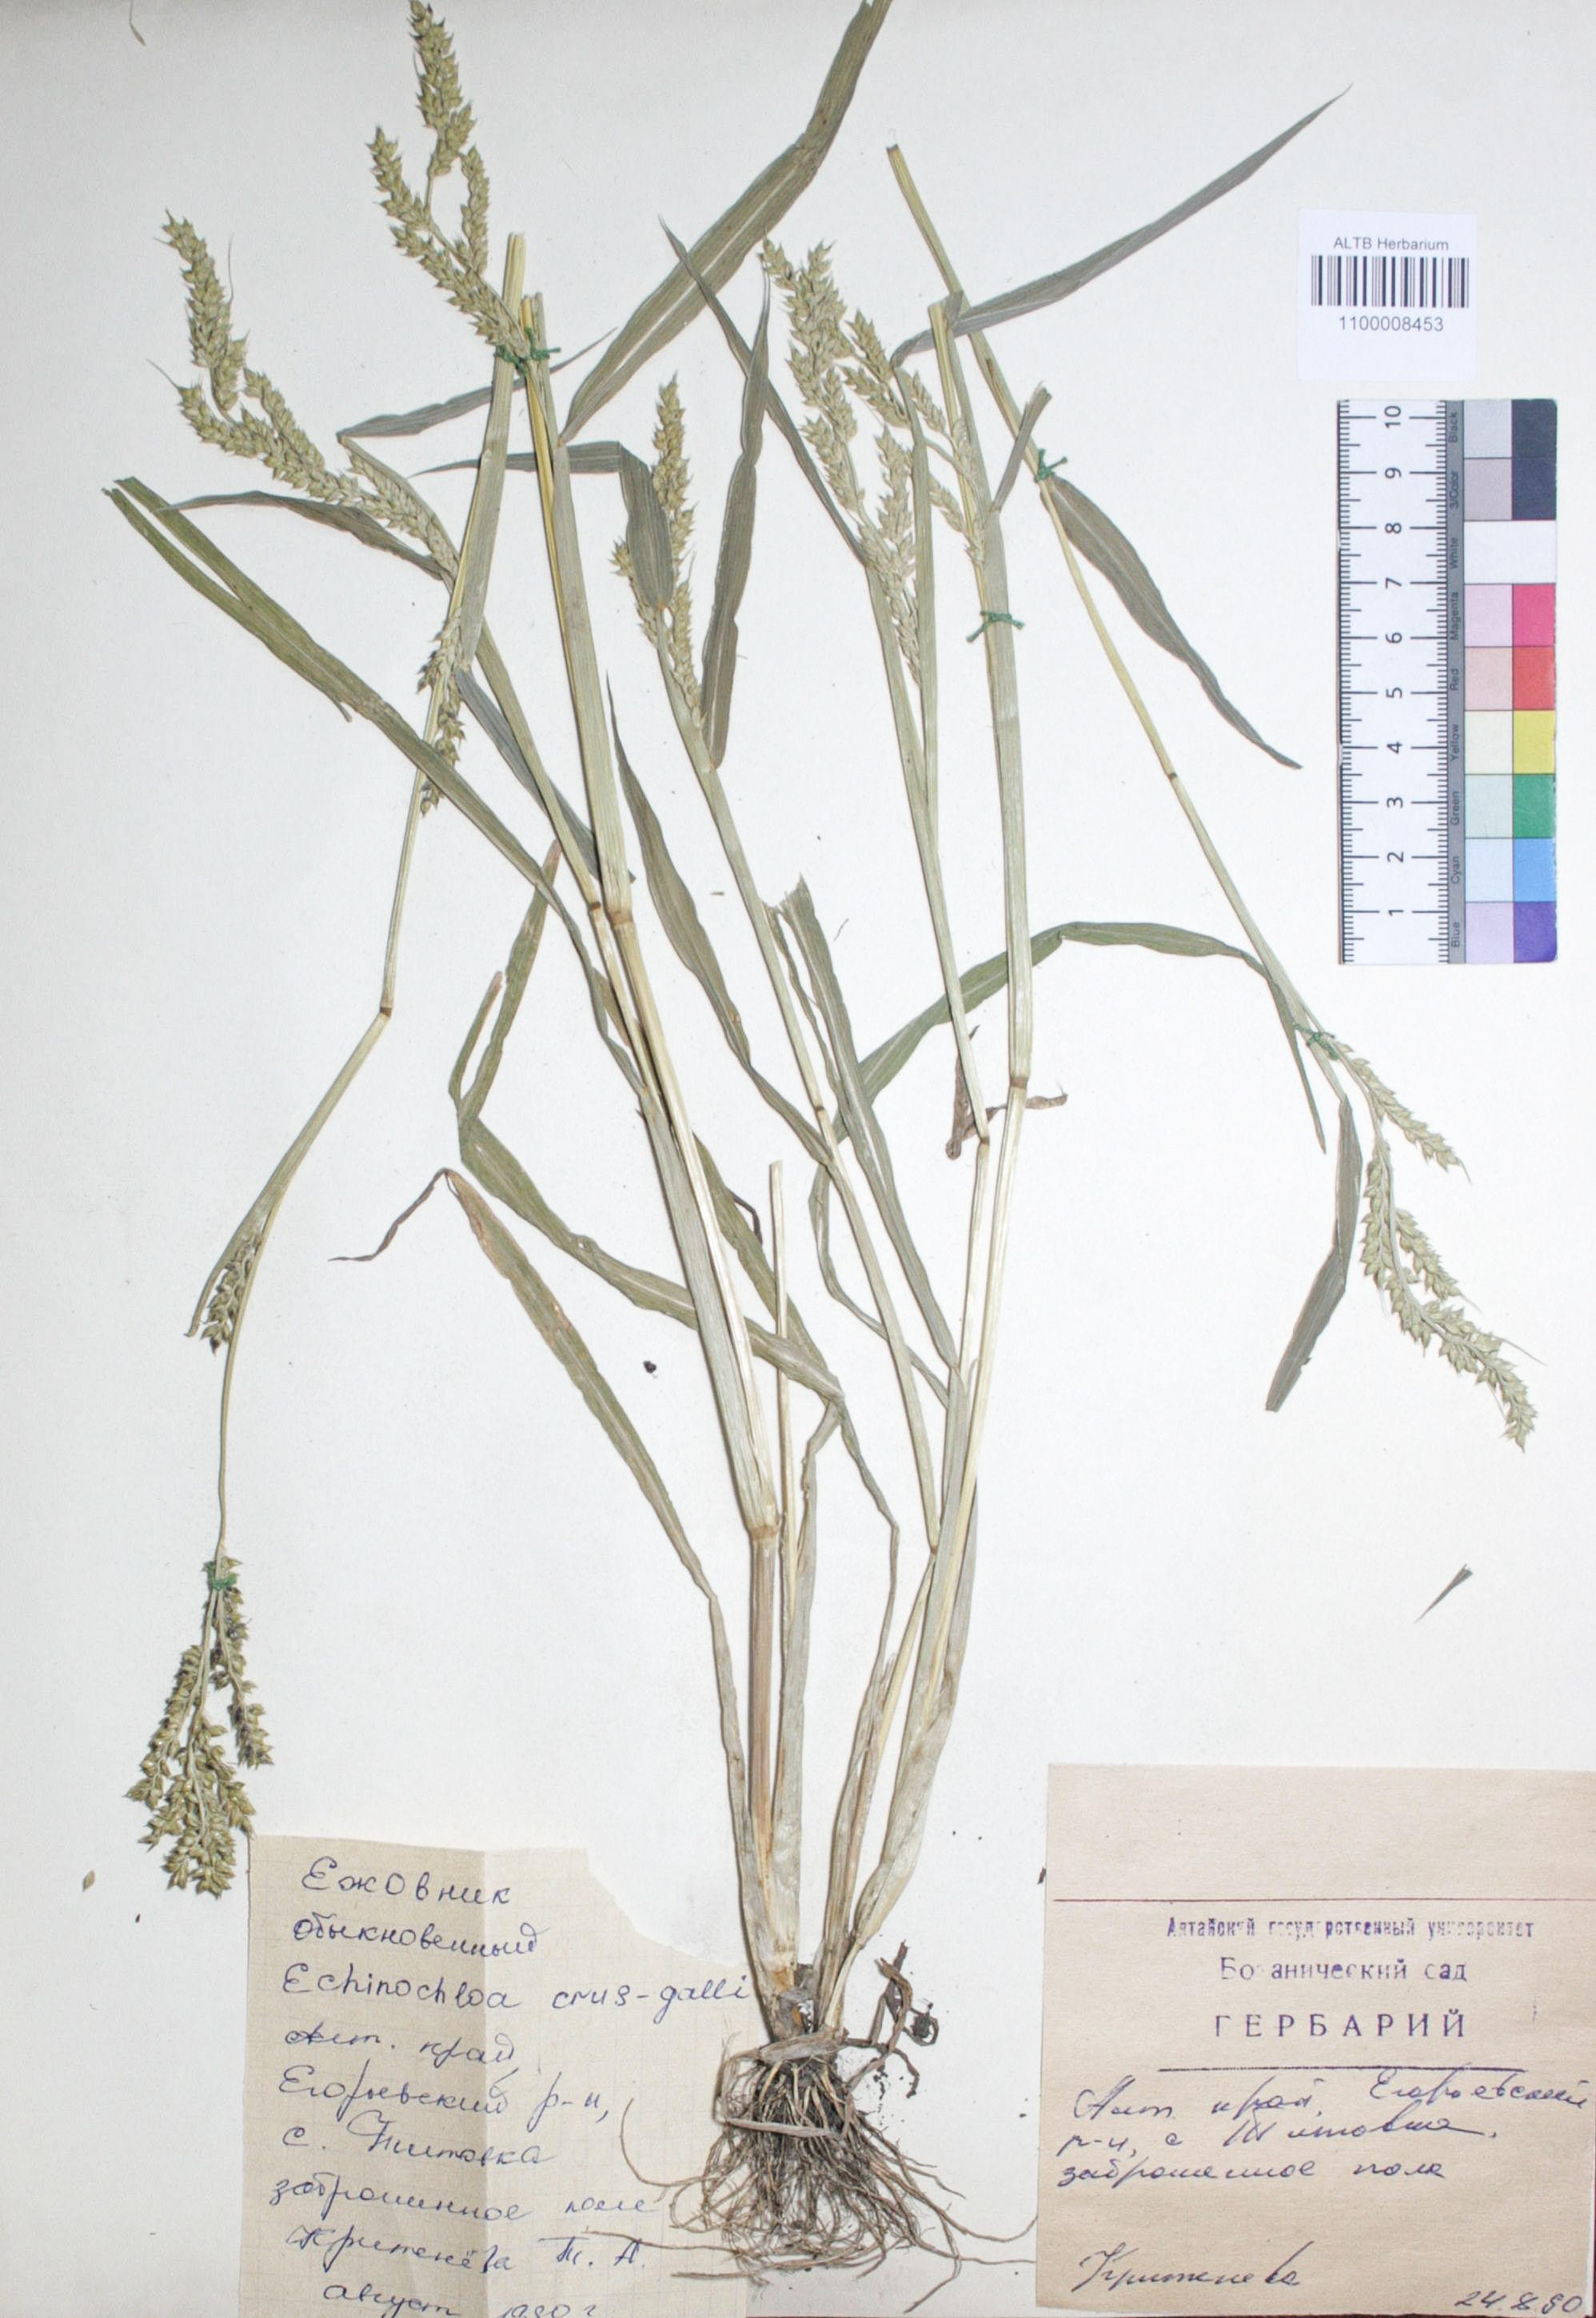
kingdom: Plantae
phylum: Tracheophyta
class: Liliopsida
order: Poales
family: Poaceae
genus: Echinochloa
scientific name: Echinochloa crus-galli
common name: Cockspur
